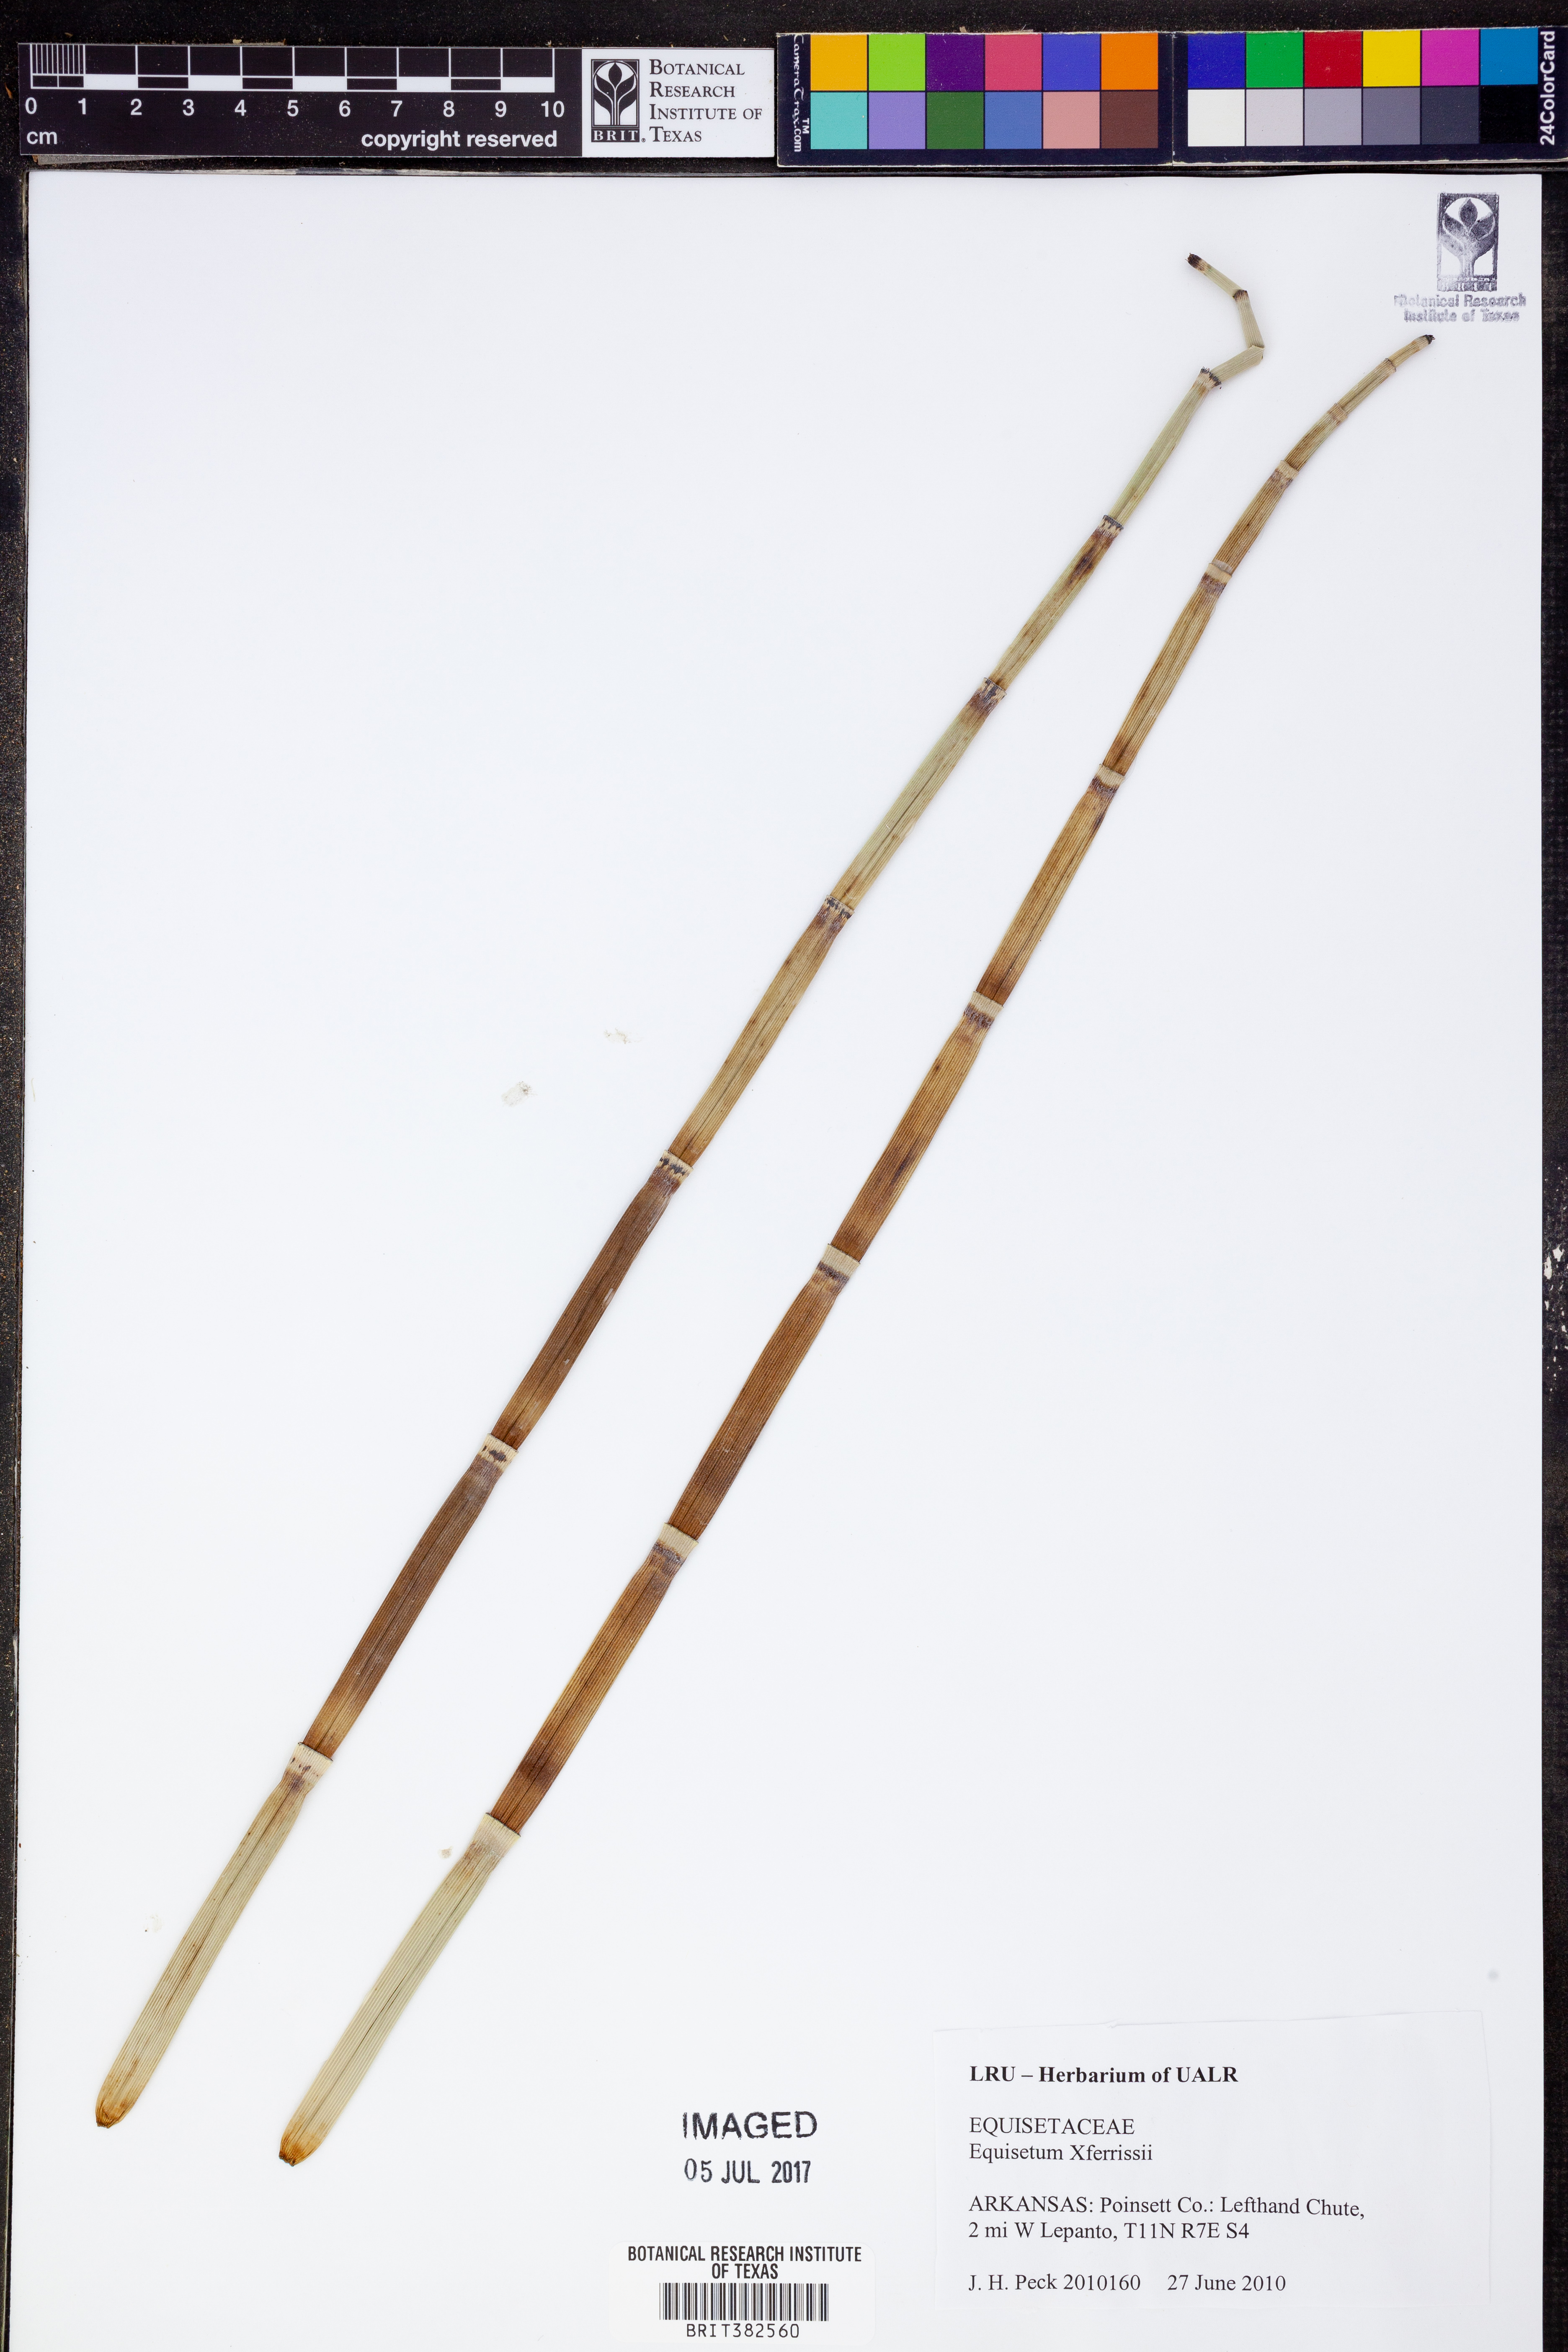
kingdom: Plantae
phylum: Tracheophyta
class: Polypodiopsida
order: Equisetales
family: Equisetaceae
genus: Equisetum
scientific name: Equisetum ferrissii
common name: Ferriss' horsetail
